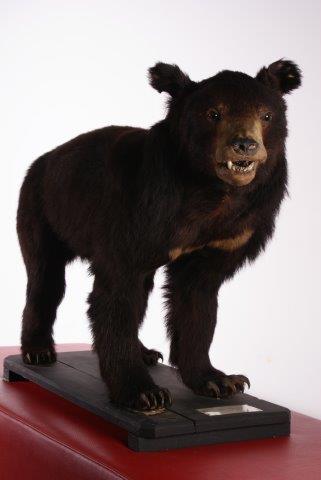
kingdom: Animalia
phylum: Chordata
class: Mammalia
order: Carnivora
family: Ursidae
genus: Ursus
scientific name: Ursus thibetanus
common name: Asian Black Bear
